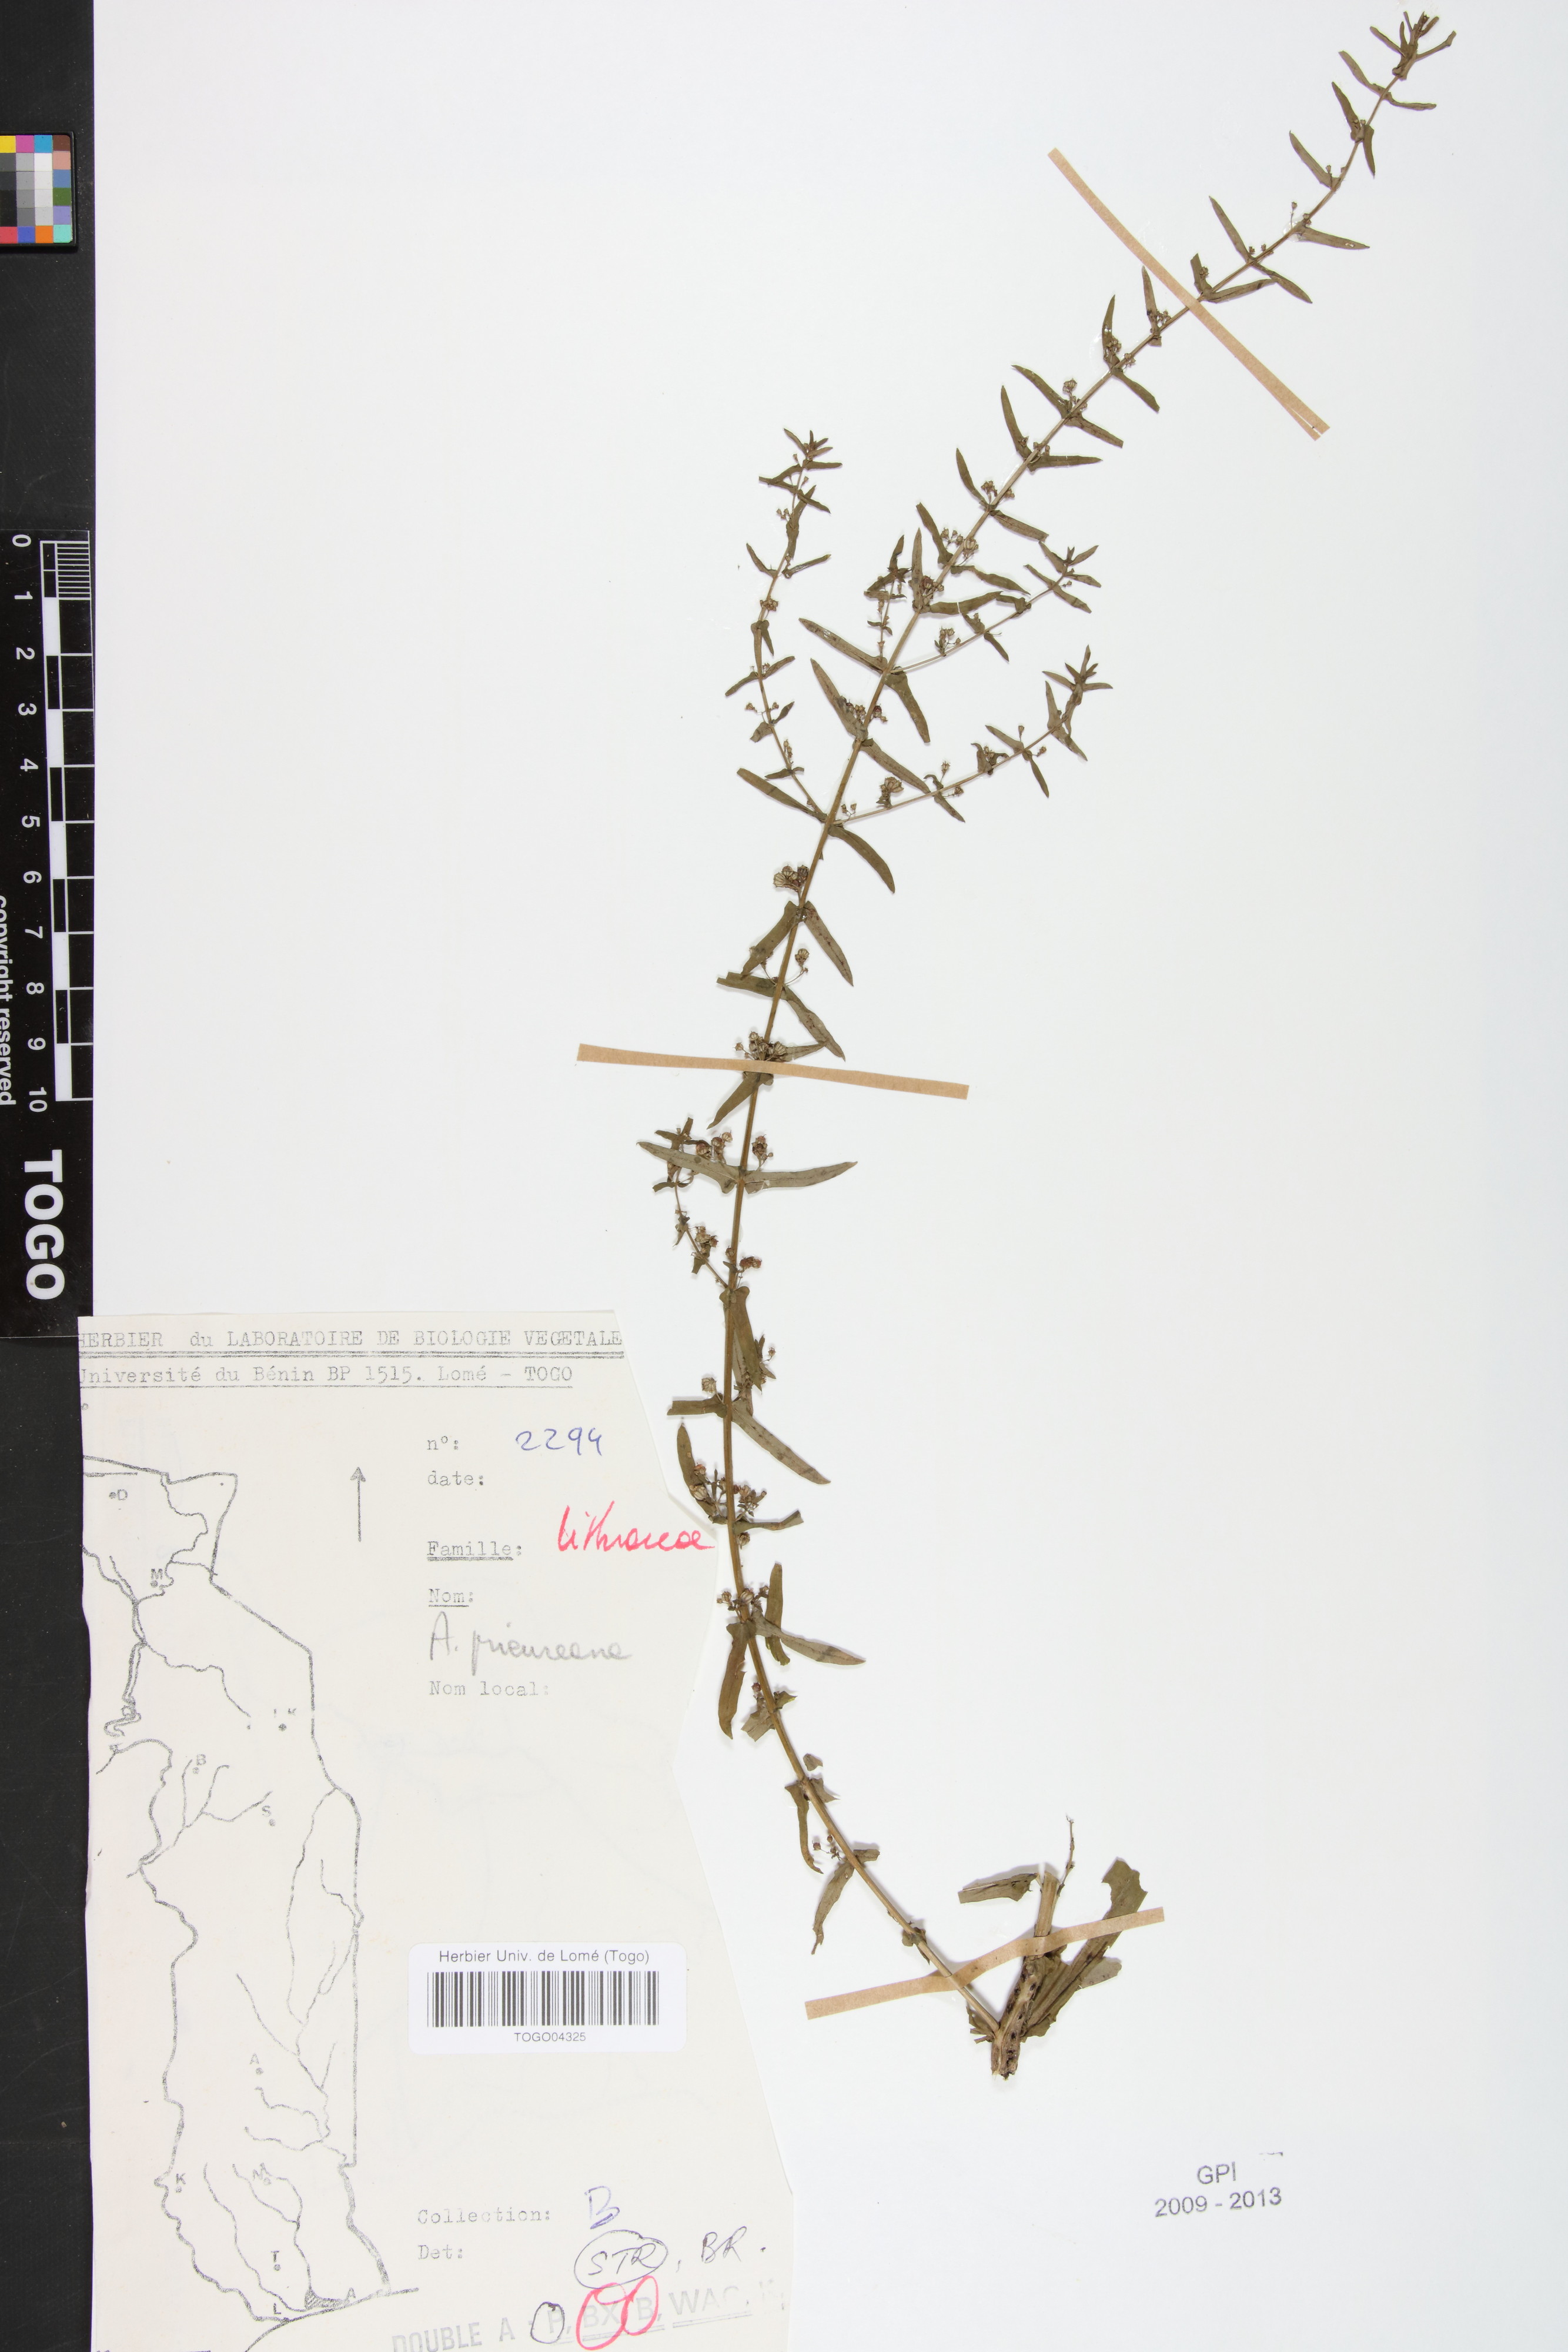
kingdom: Plantae
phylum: Tracheophyta
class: Magnoliopsida
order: Myrtales
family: Lythraceae
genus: Ammannia
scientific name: Ammannia prieureana
